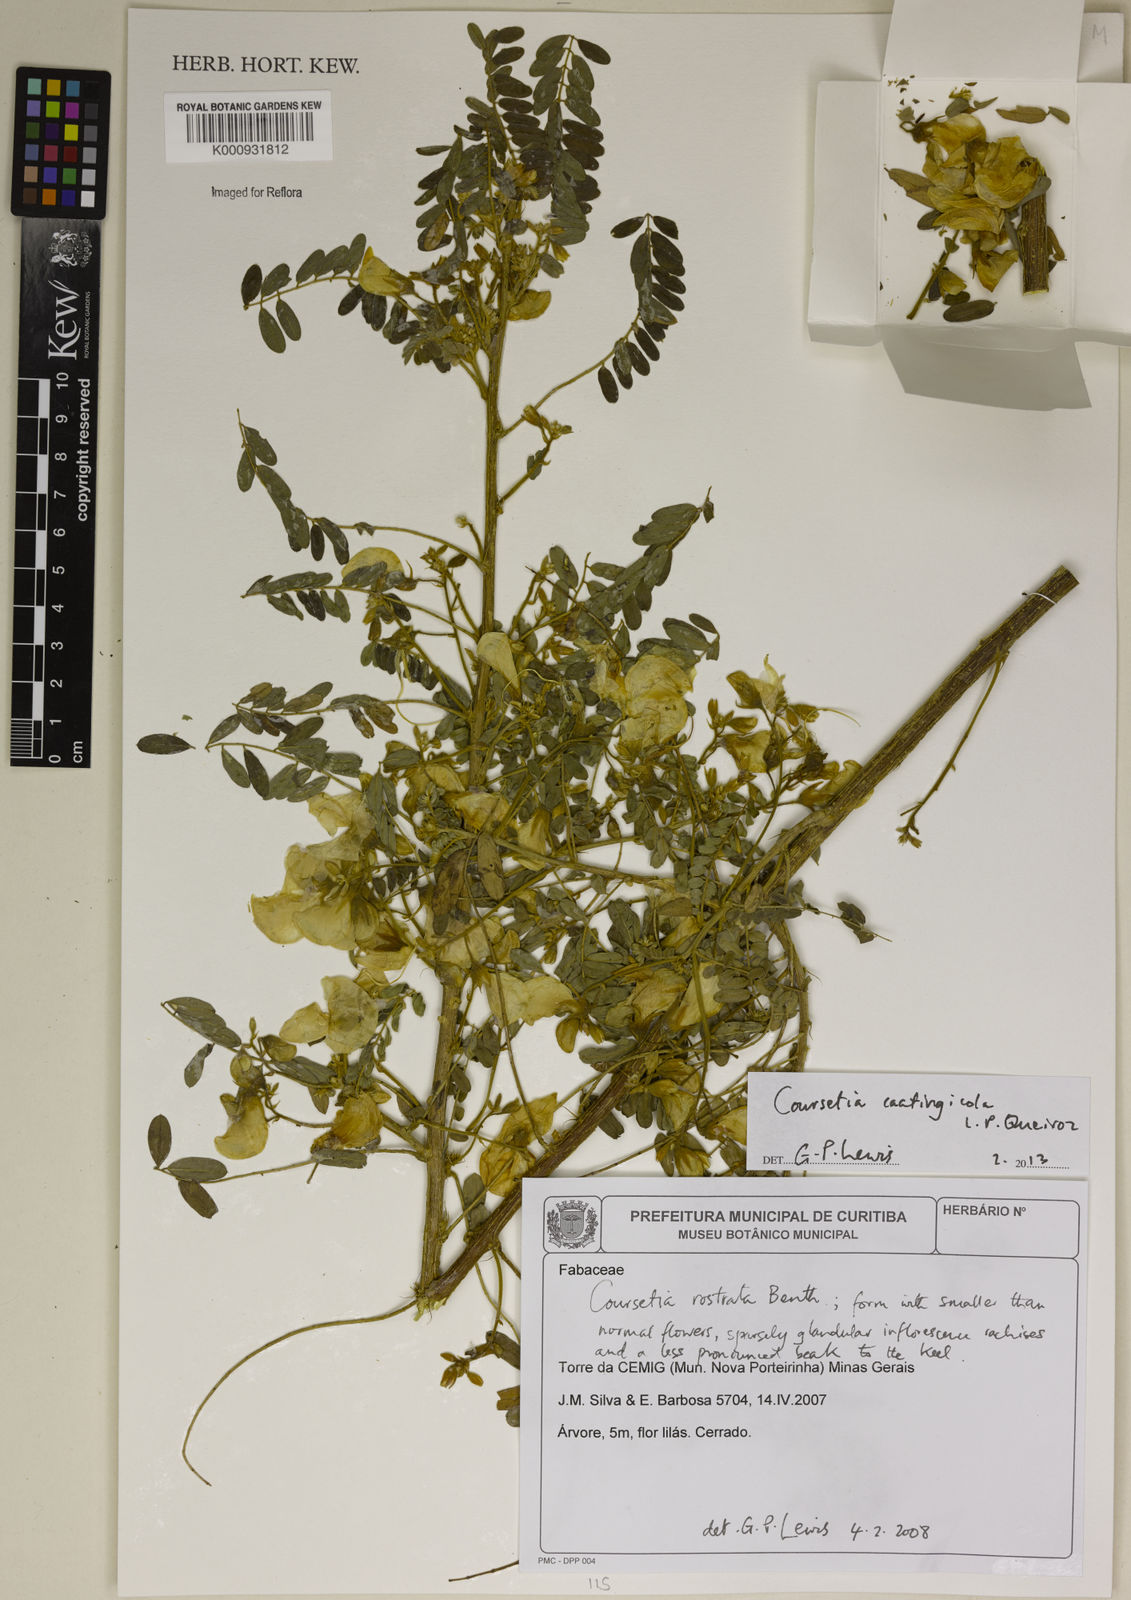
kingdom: Plantae
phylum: Tracheophyta
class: Magnoliopsida
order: Fabales
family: Fabaceae
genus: Coursetia
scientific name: Coursetia caatingicola
